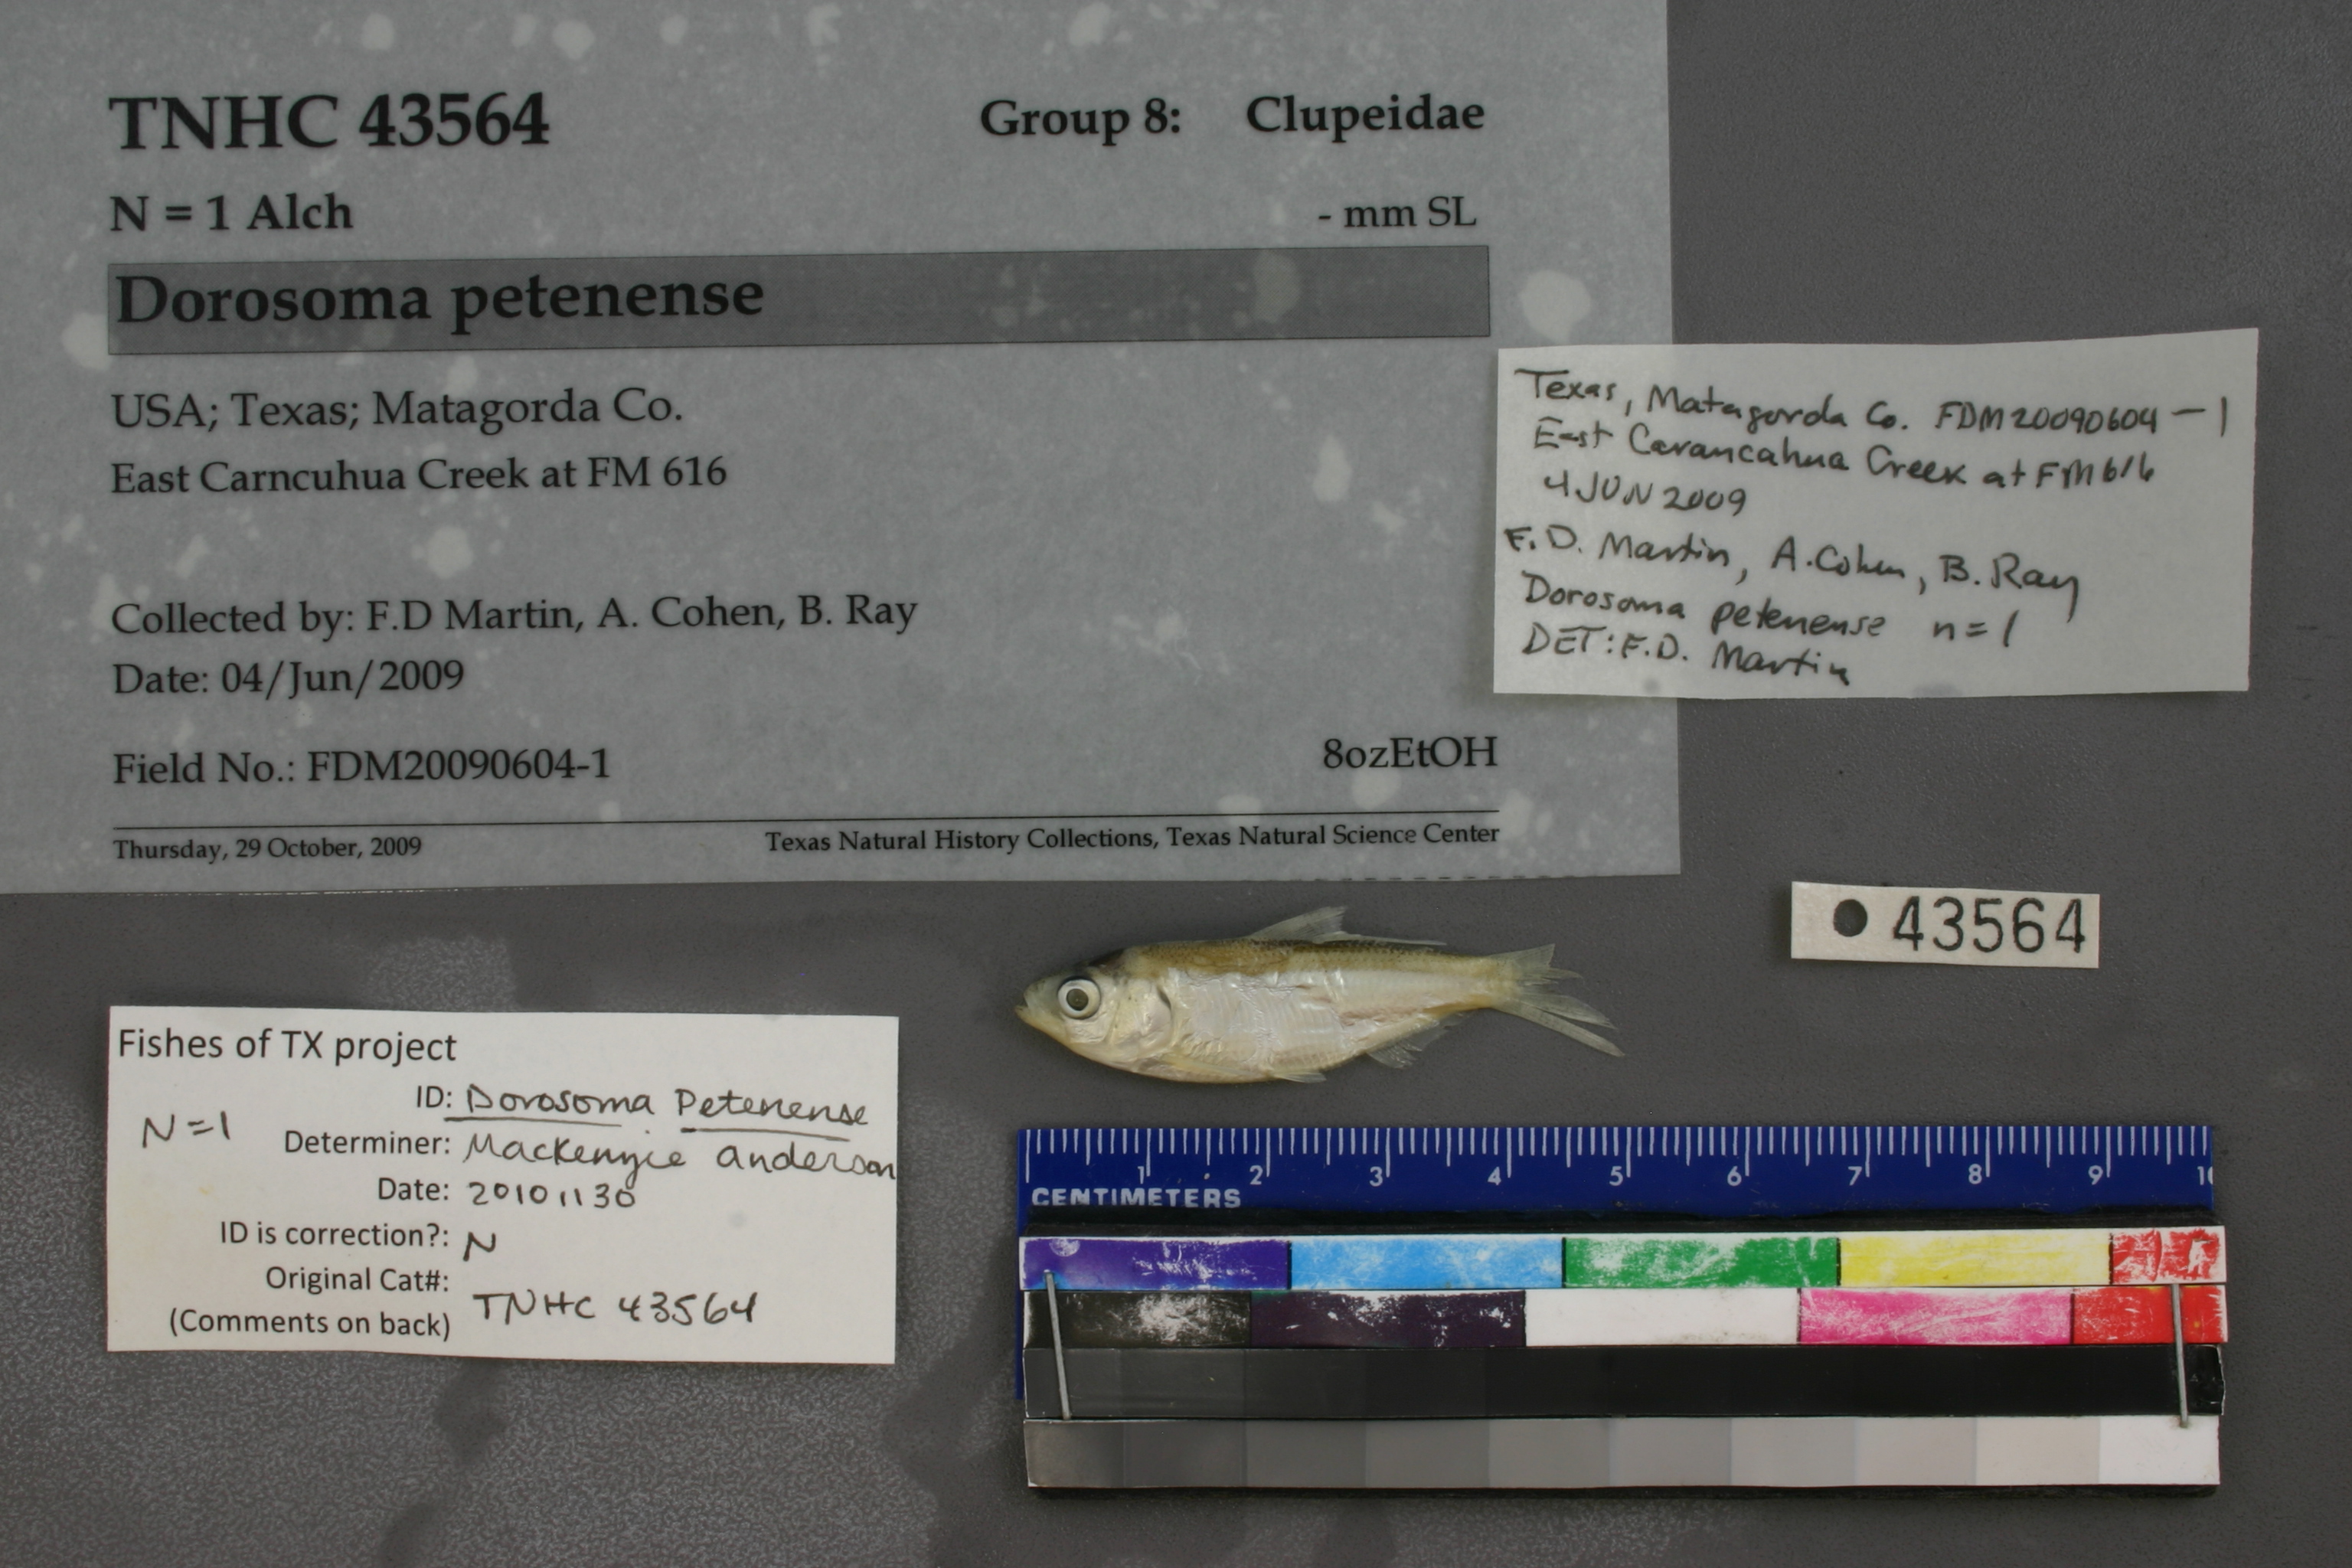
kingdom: Animalia
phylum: Chordata
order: Clupeiformes
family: Clupeidae
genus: Dorosoma
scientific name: Dorosoma petenense
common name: Threadfin shad
